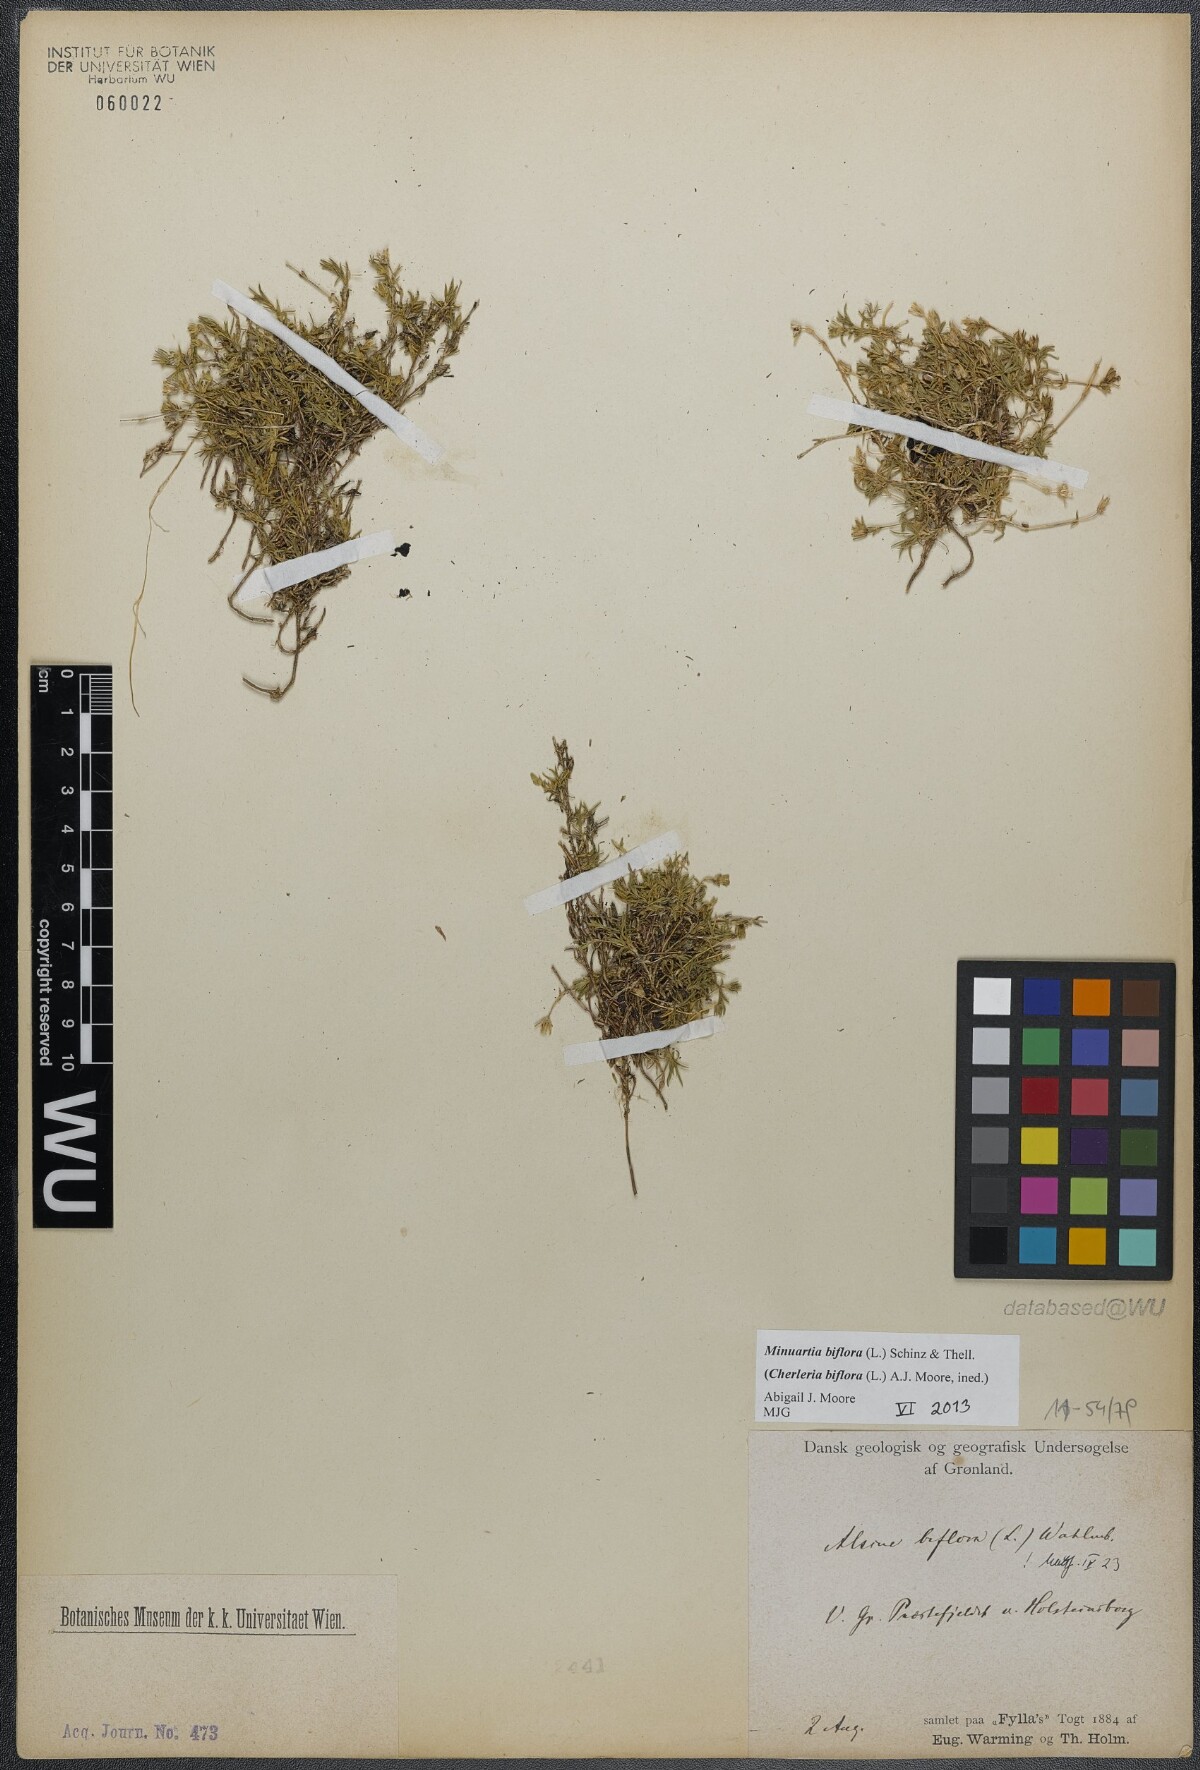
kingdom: Plantae
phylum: Tracheophyta
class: Magnoliopsida
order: Caryophyllales
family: Caryophyllaceae
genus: Cherleria
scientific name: Cherleria biflora
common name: Mountain sandwort
